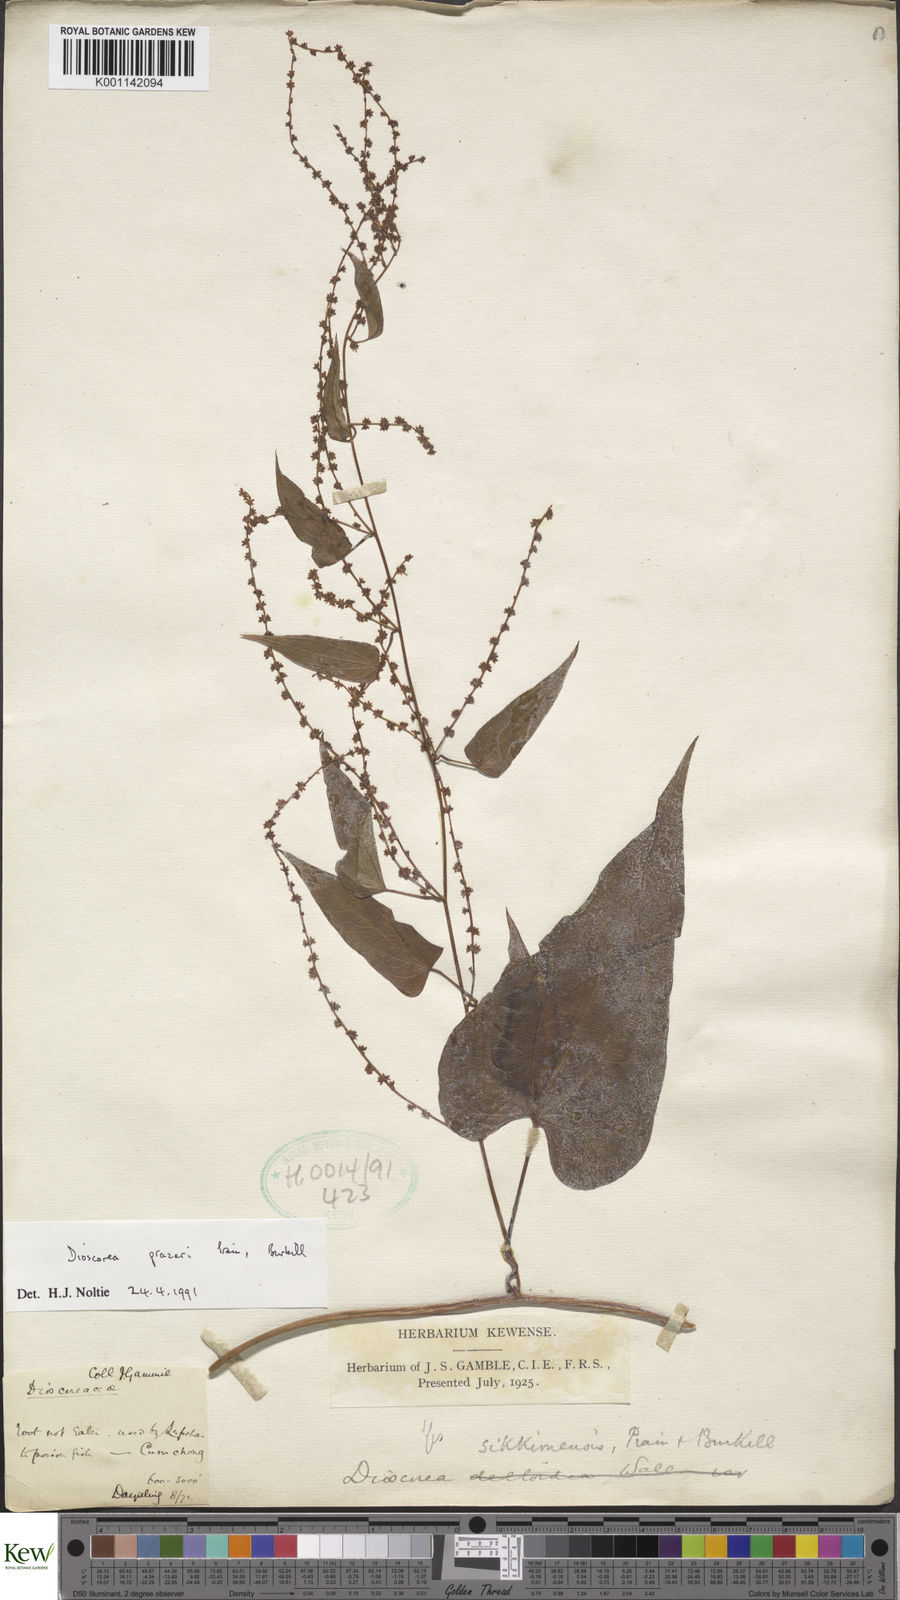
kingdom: Plantae
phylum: Tracheophyta
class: Liliopsida
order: Dioscoreales
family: Dioscoreaceae
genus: Dioscorea
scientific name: Dioscorea prazeri
